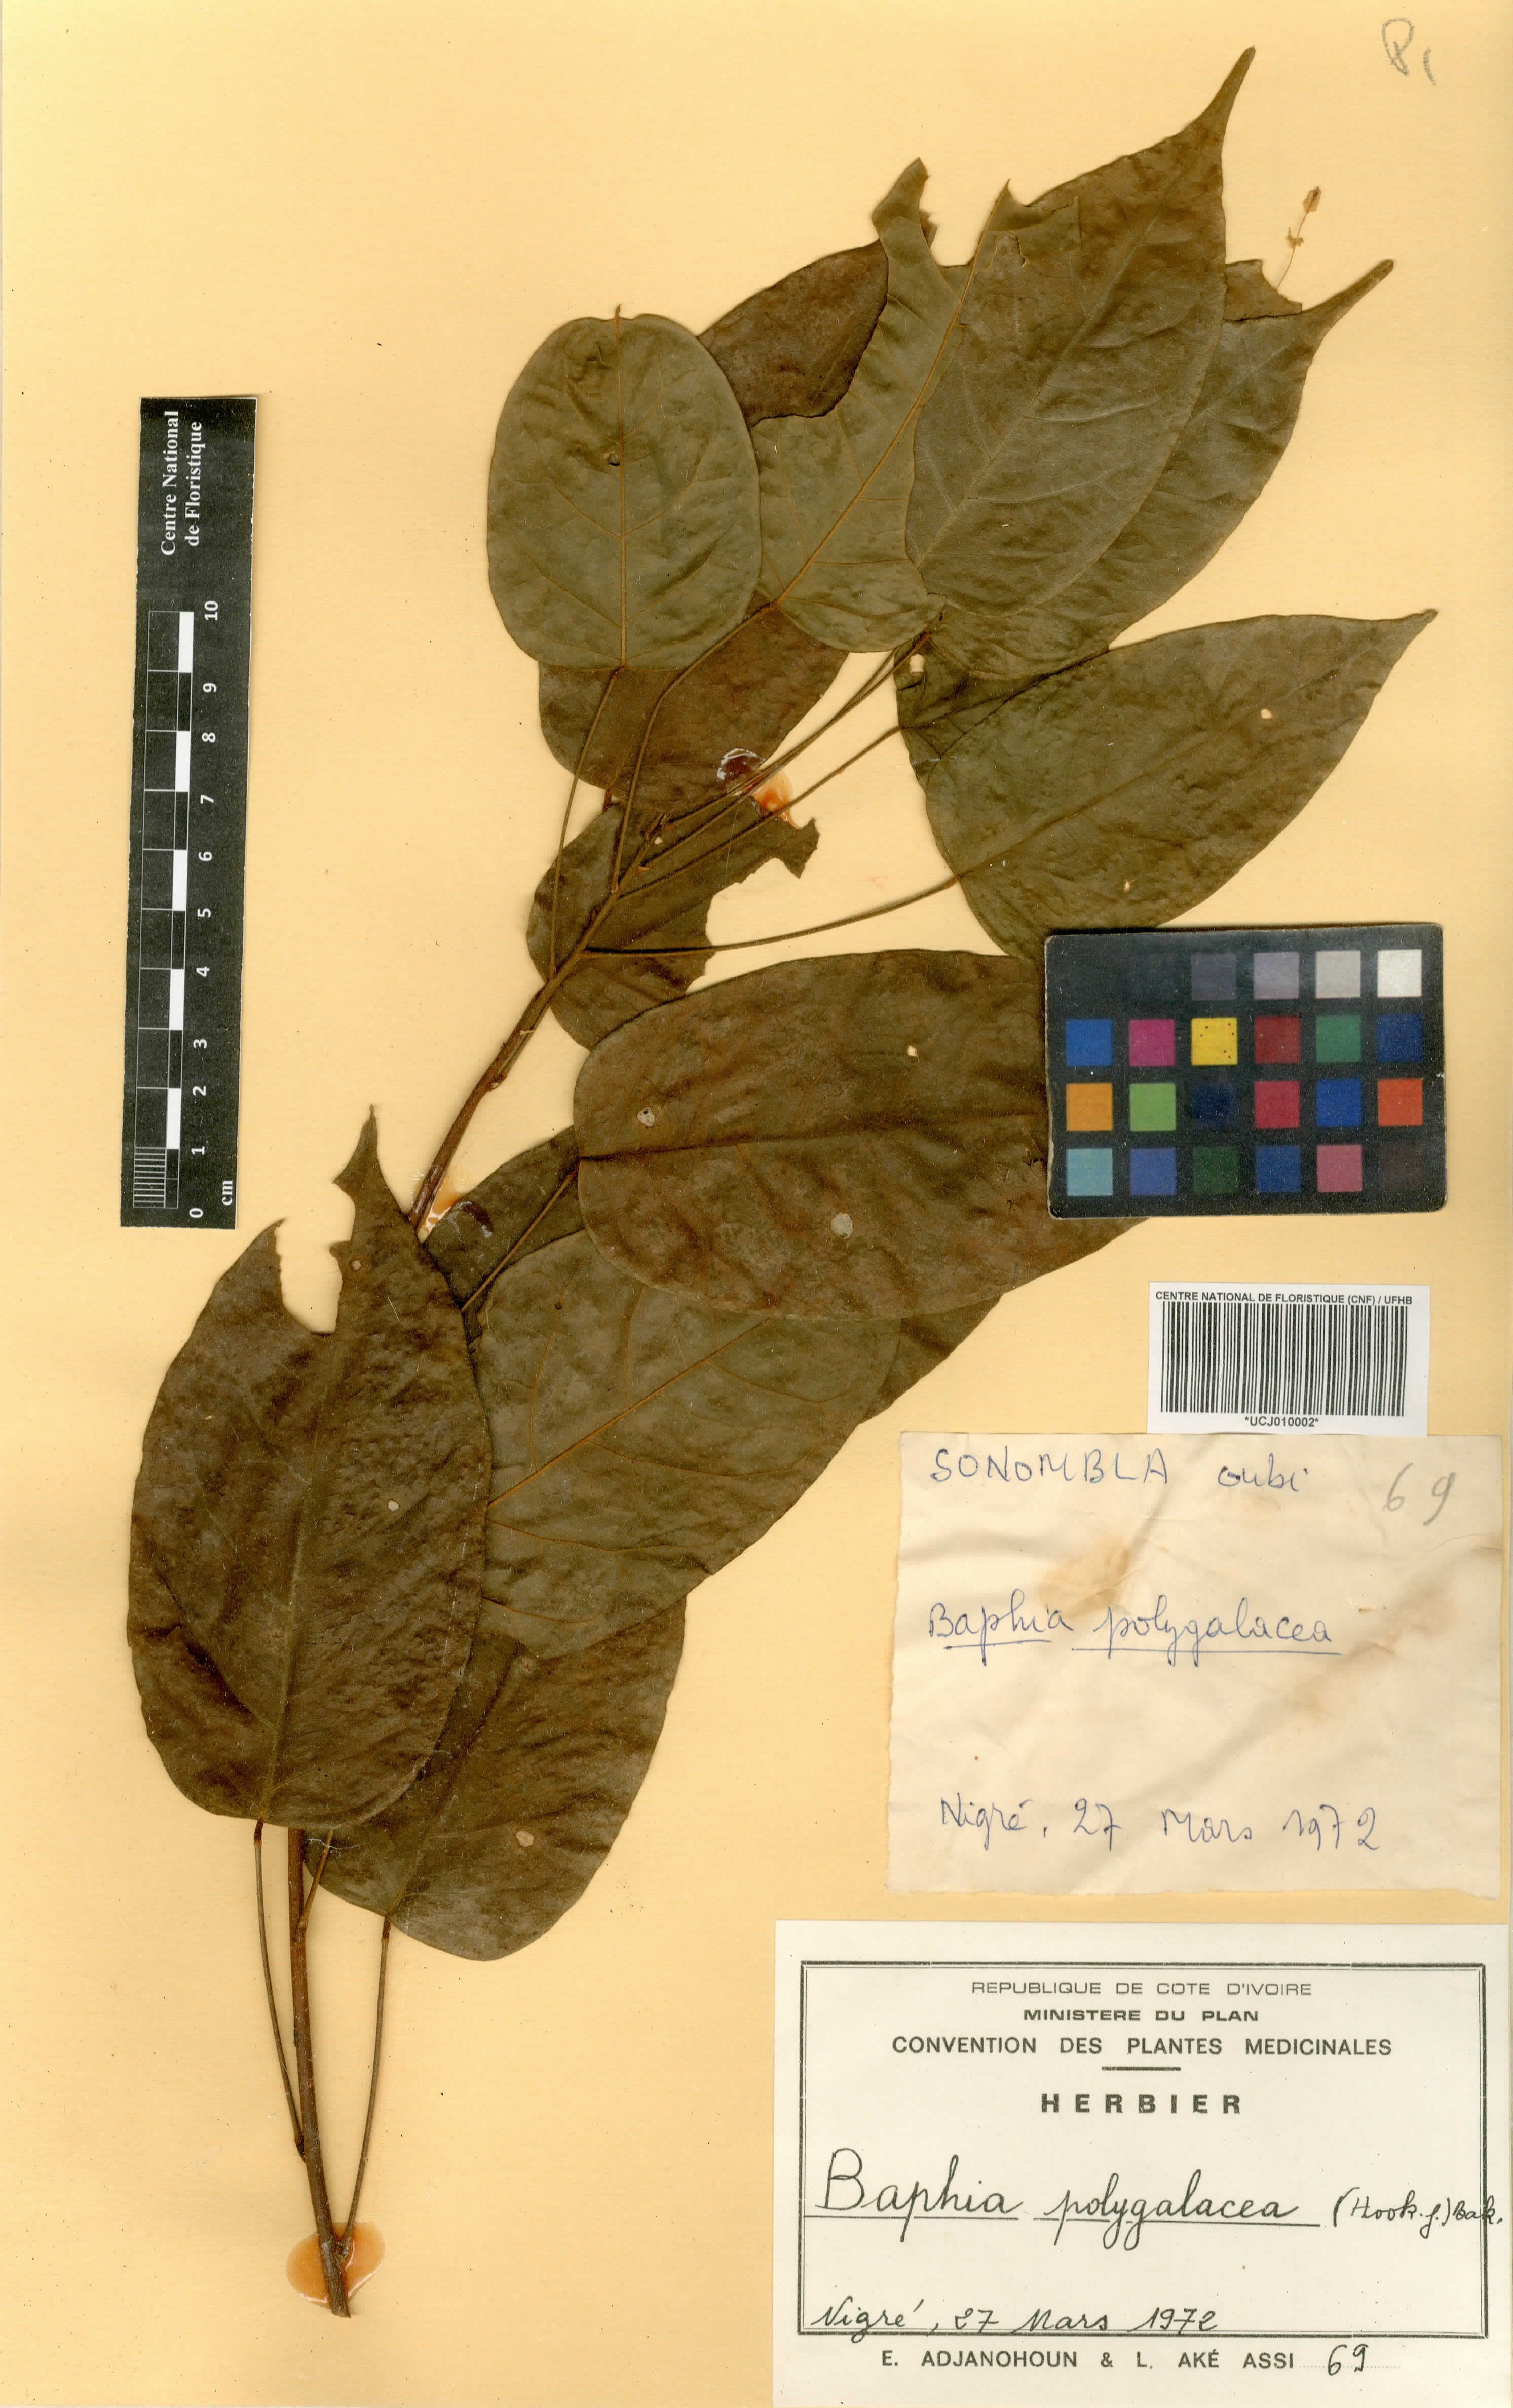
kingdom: Plantae
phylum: Tracheophyta
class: Magnoliopsida
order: Fabales
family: Fabaceae
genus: Baphia
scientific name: Baphia capparidifolia
